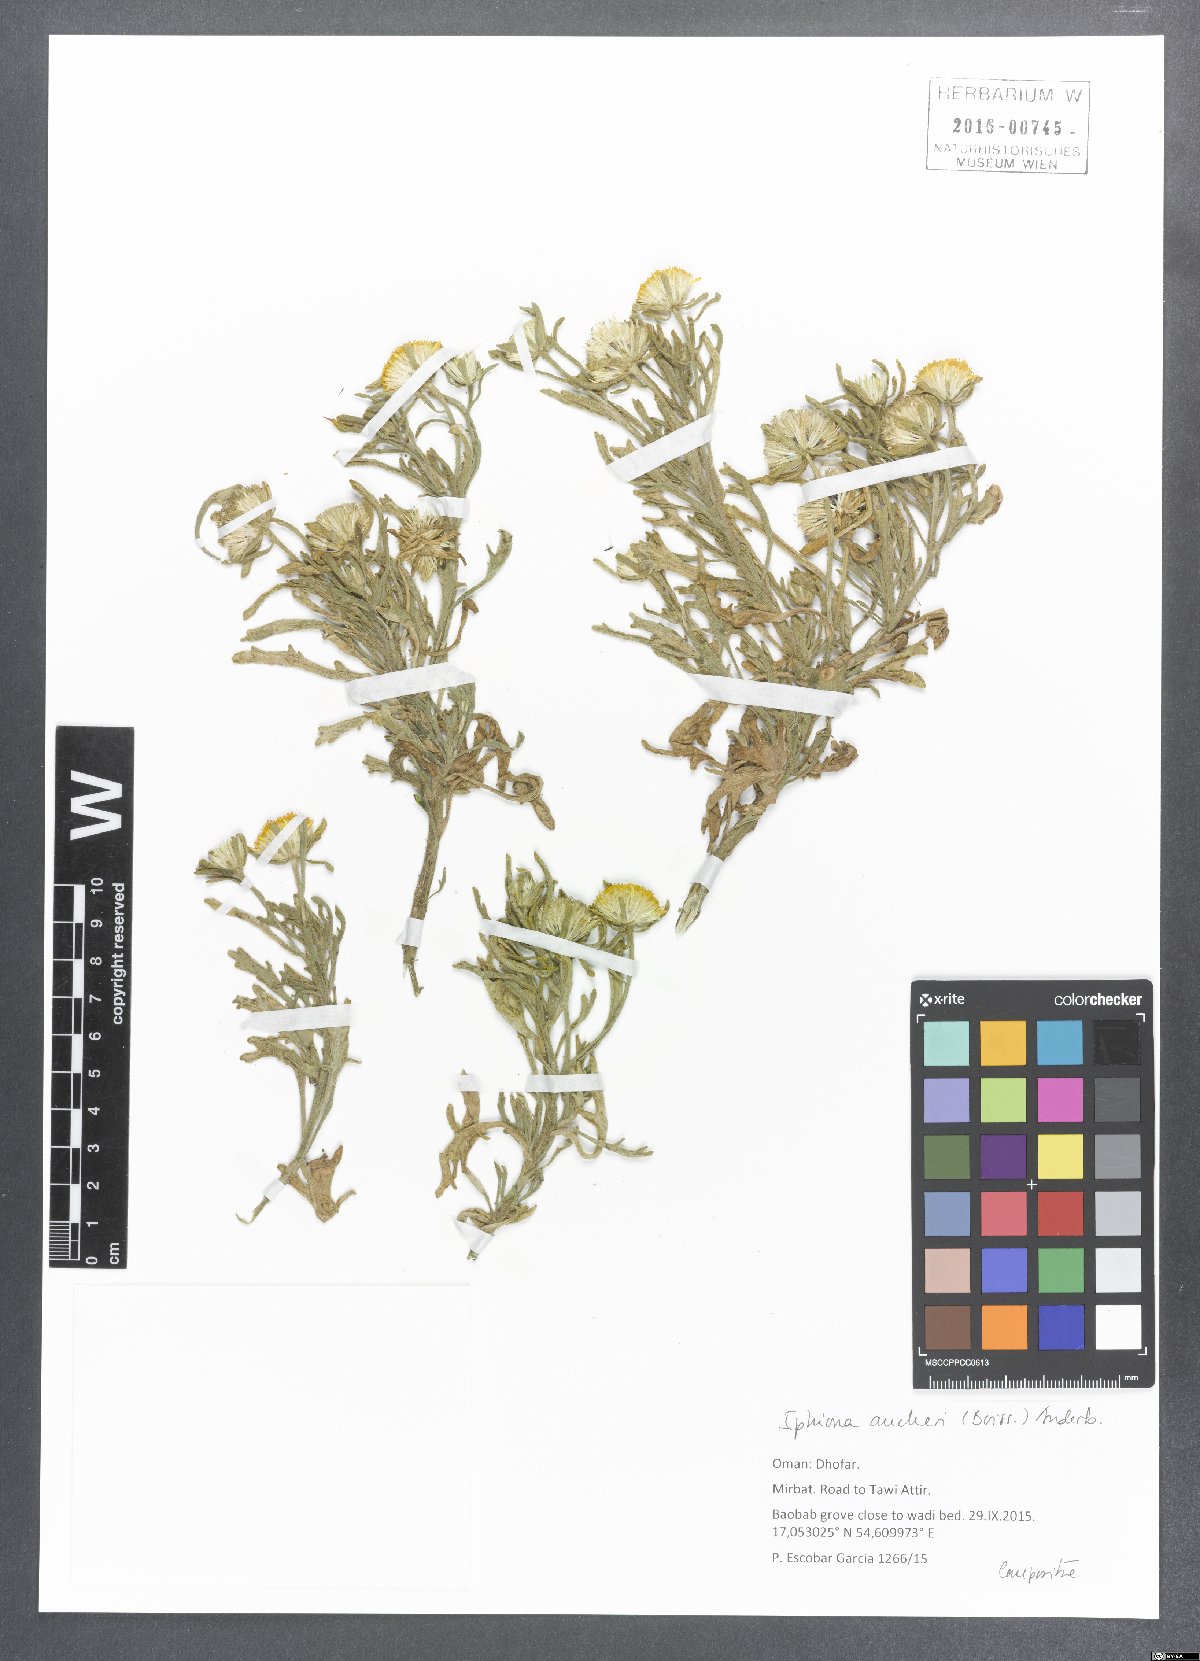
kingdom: Plantae
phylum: Tracheophyta
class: Magnoliopsida
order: Asterales
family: Asteraceae
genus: Iphiona
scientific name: Iphiona aucheri
